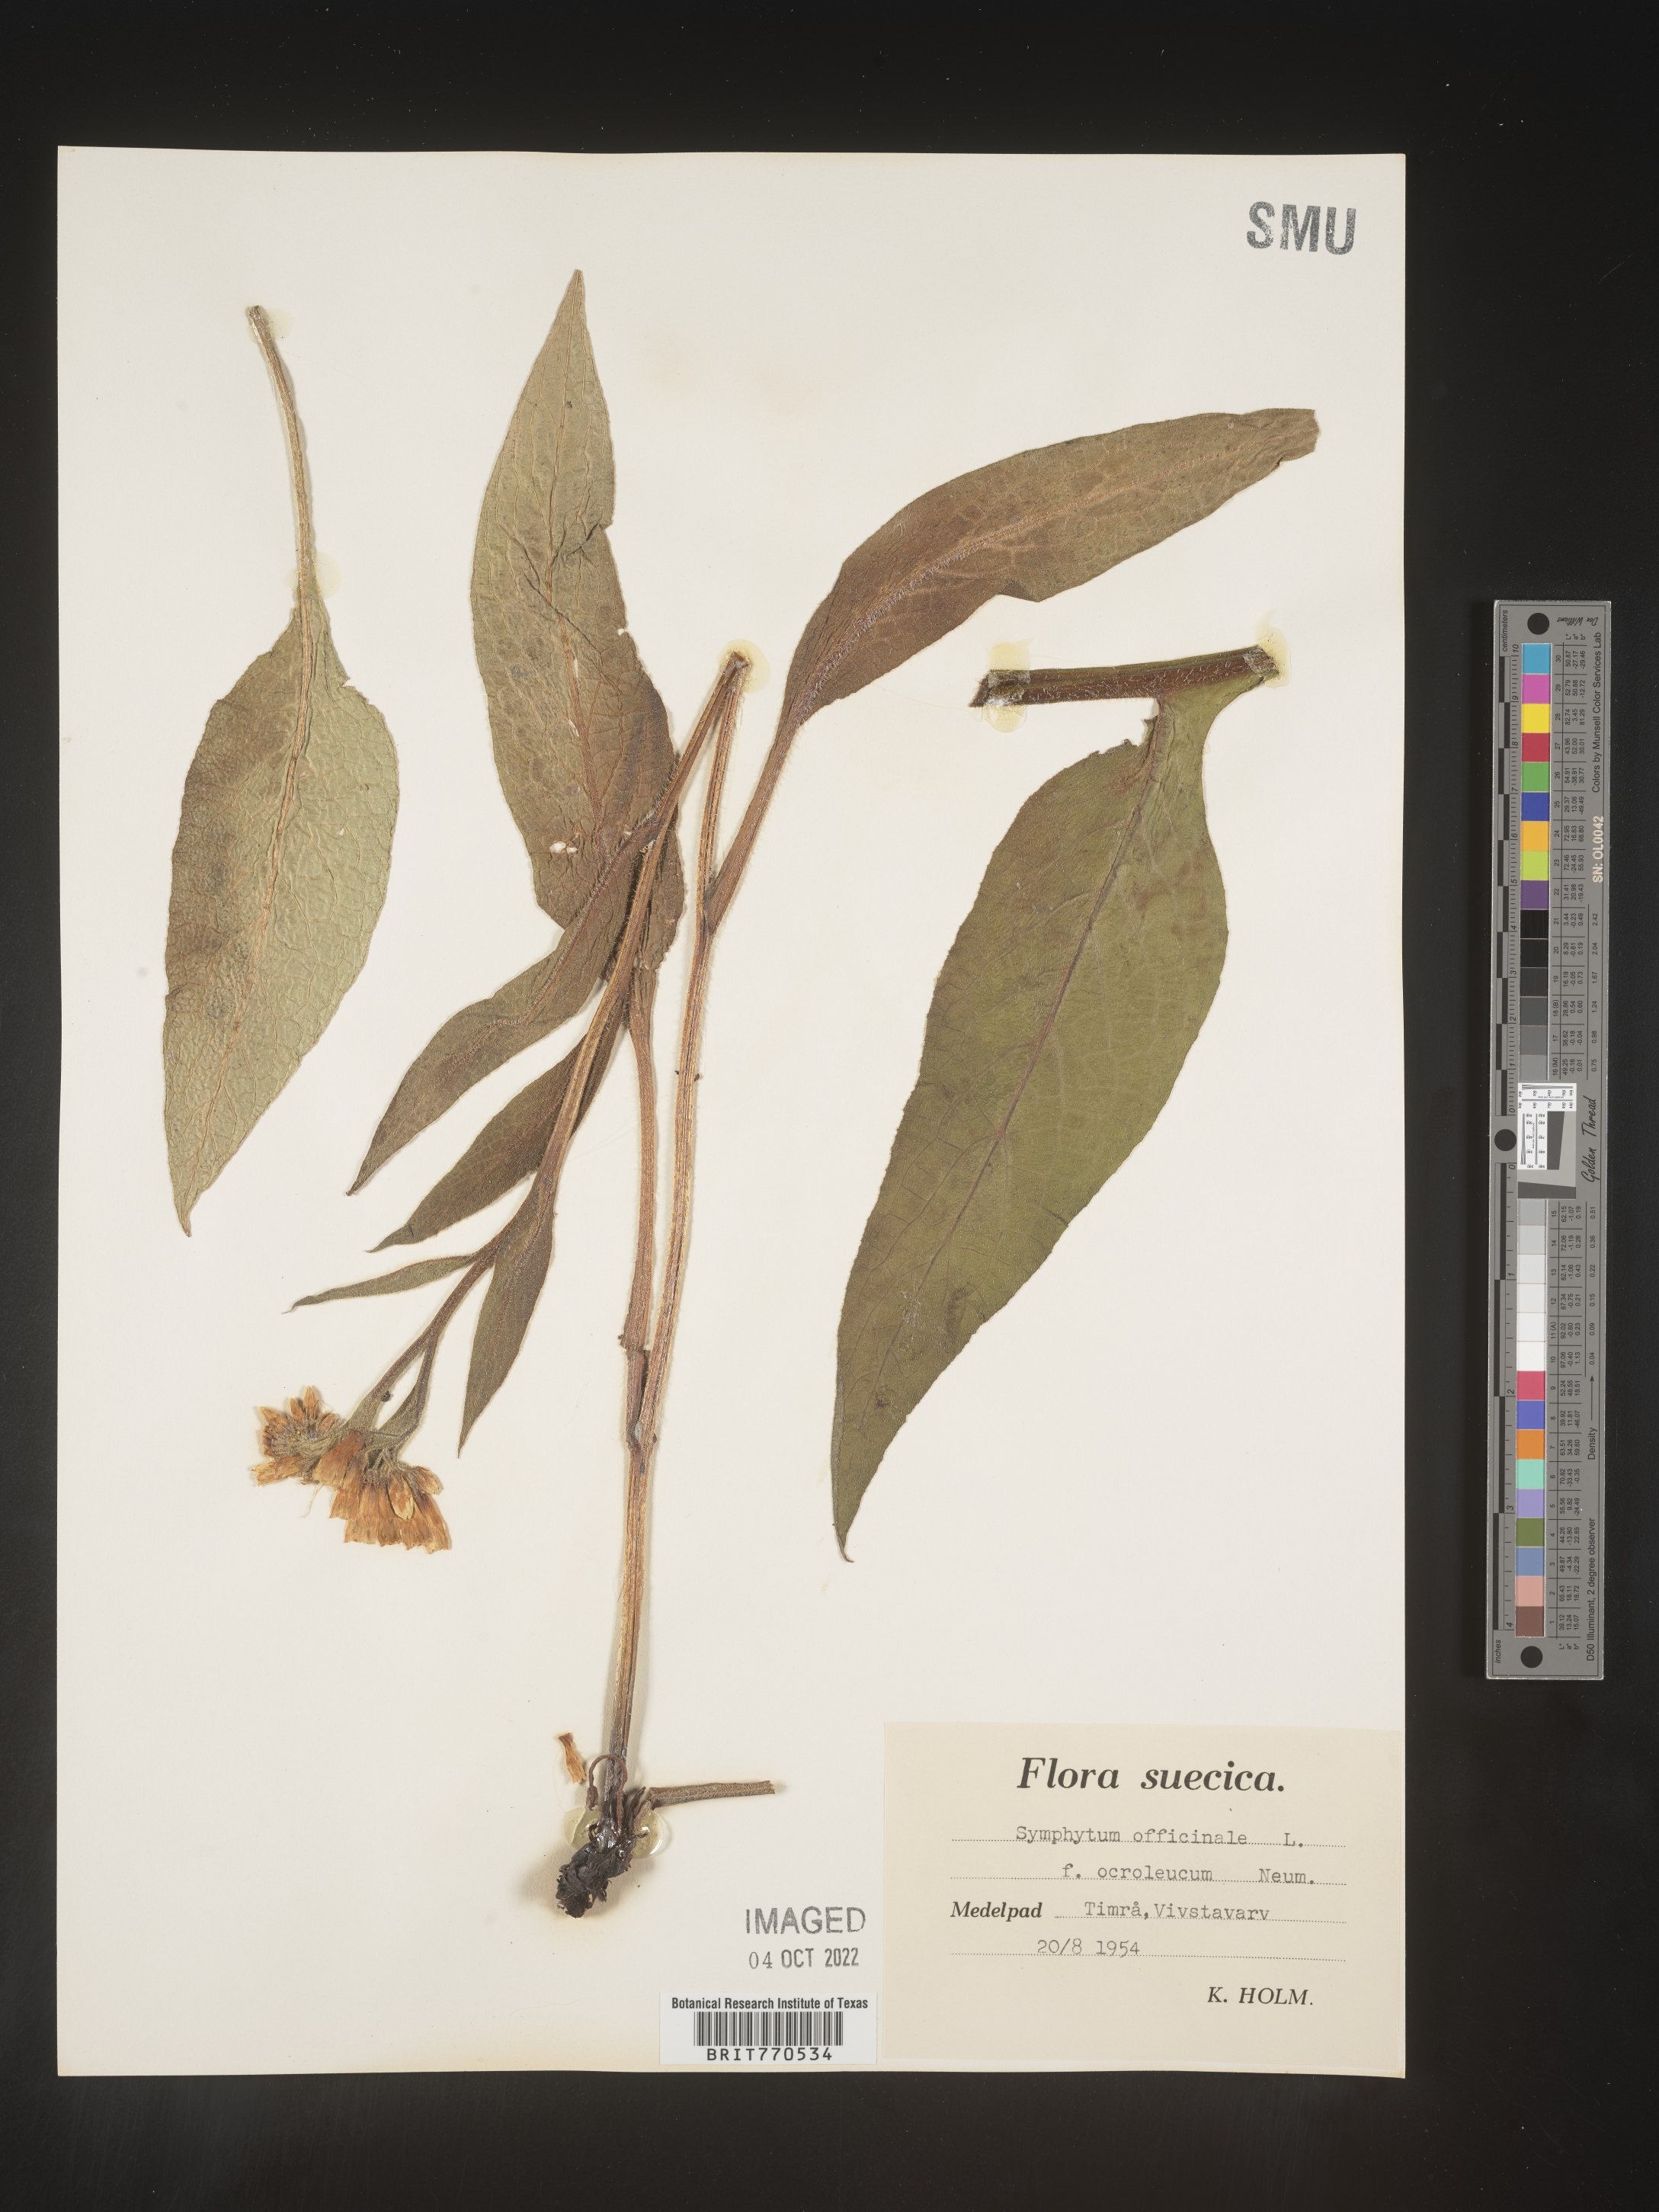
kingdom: Plantae
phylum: Tracheophyta
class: Magnoliopsida
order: Boraginales
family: Boraginaceae
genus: Symphytum
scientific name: Symphytum
